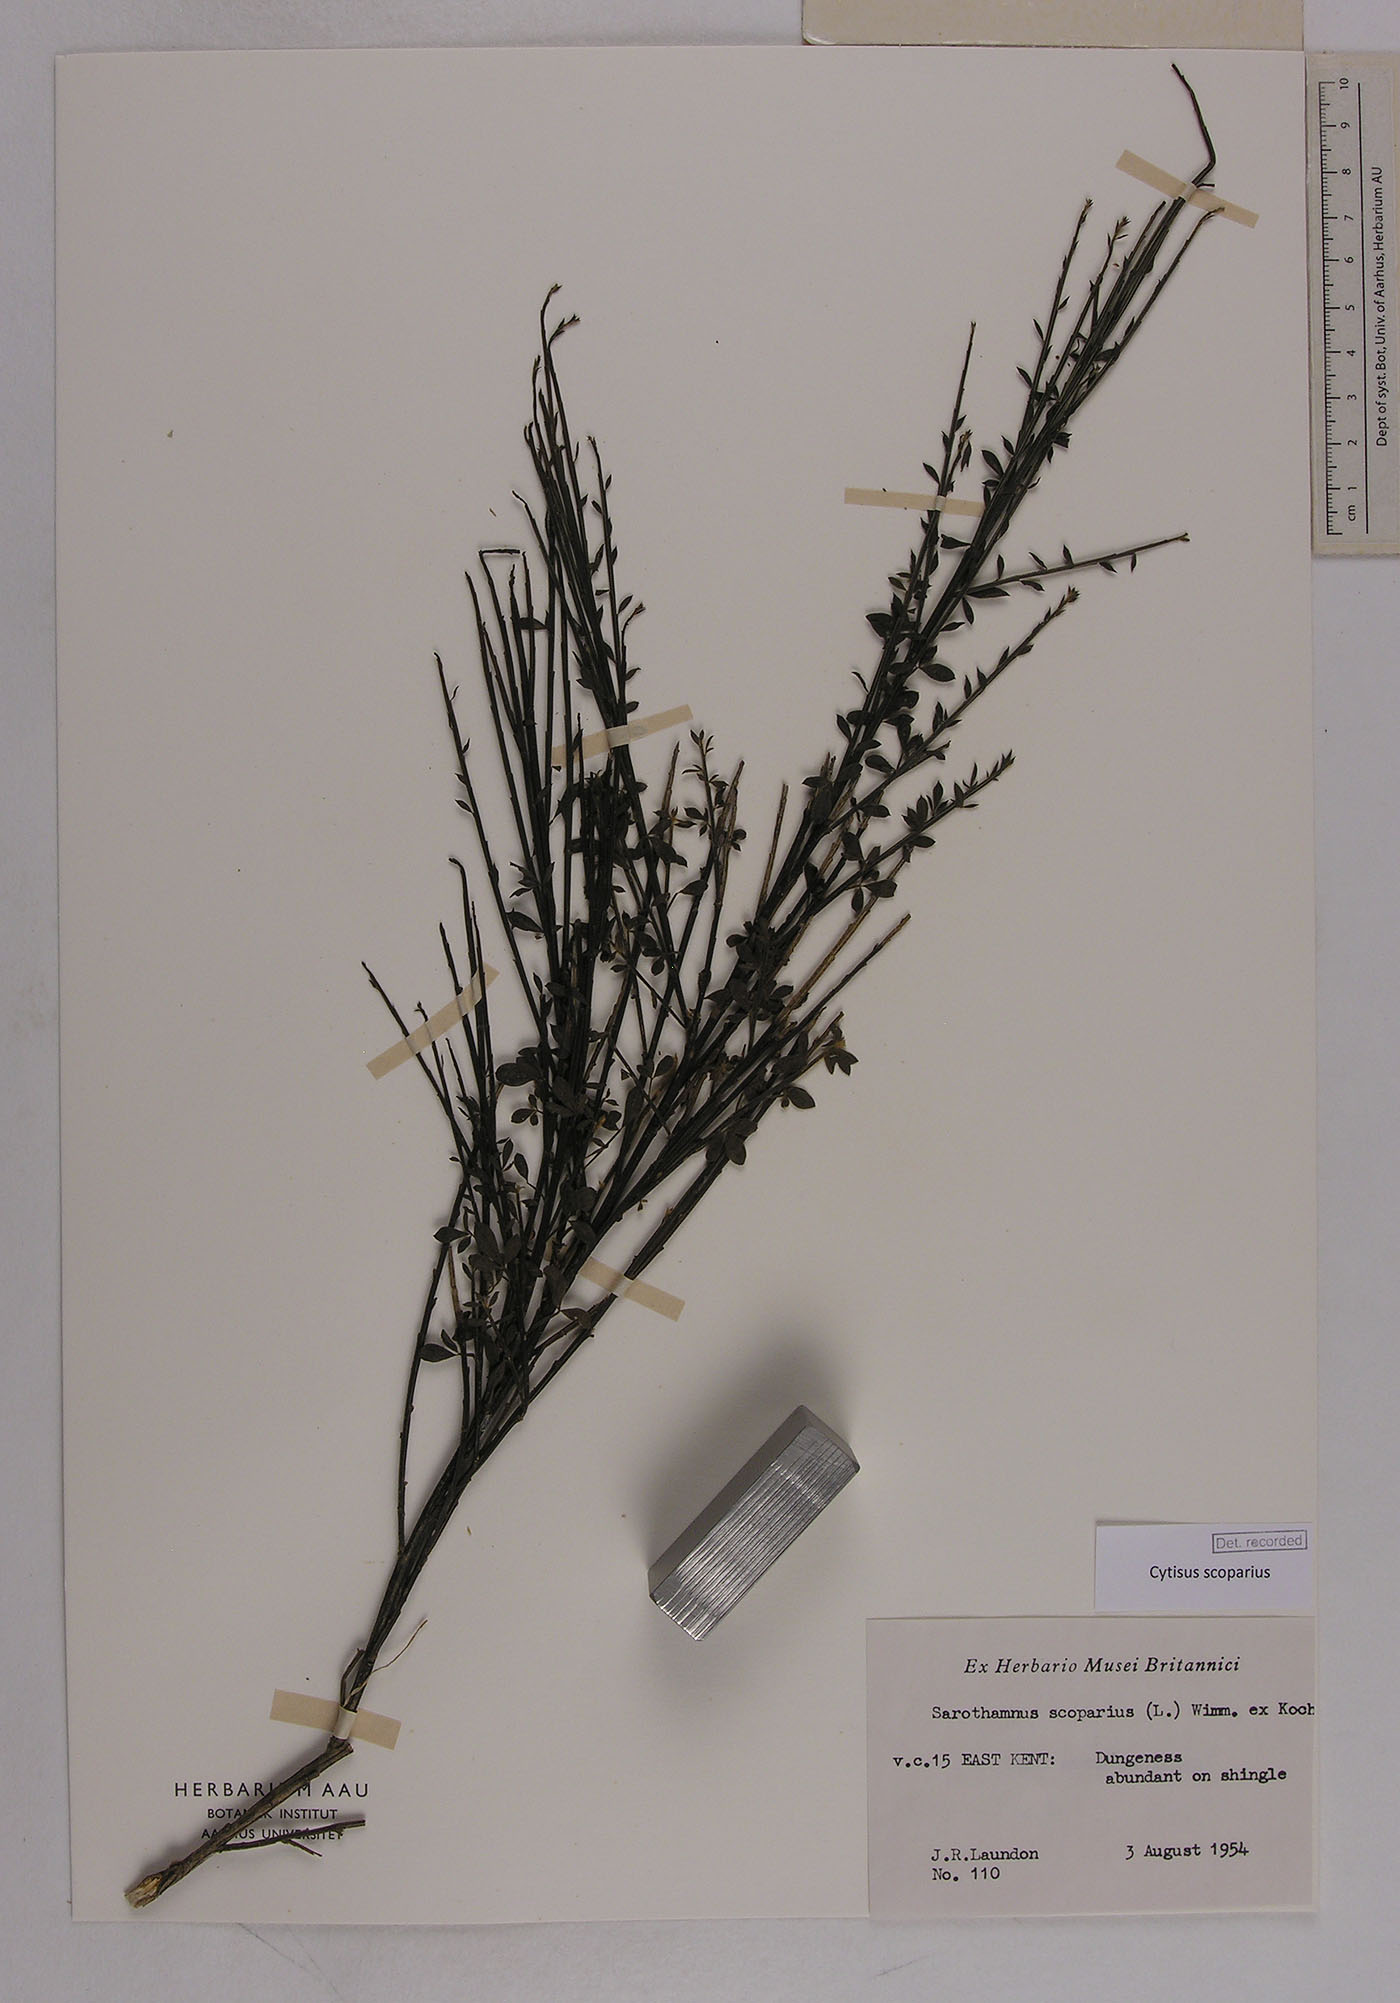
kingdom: Plantae
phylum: Tracheophyta
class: Magnoliopsida
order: Fabales
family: Fabaceae
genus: Cytisus
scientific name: Cytisus scoparius
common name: Scotch broom
